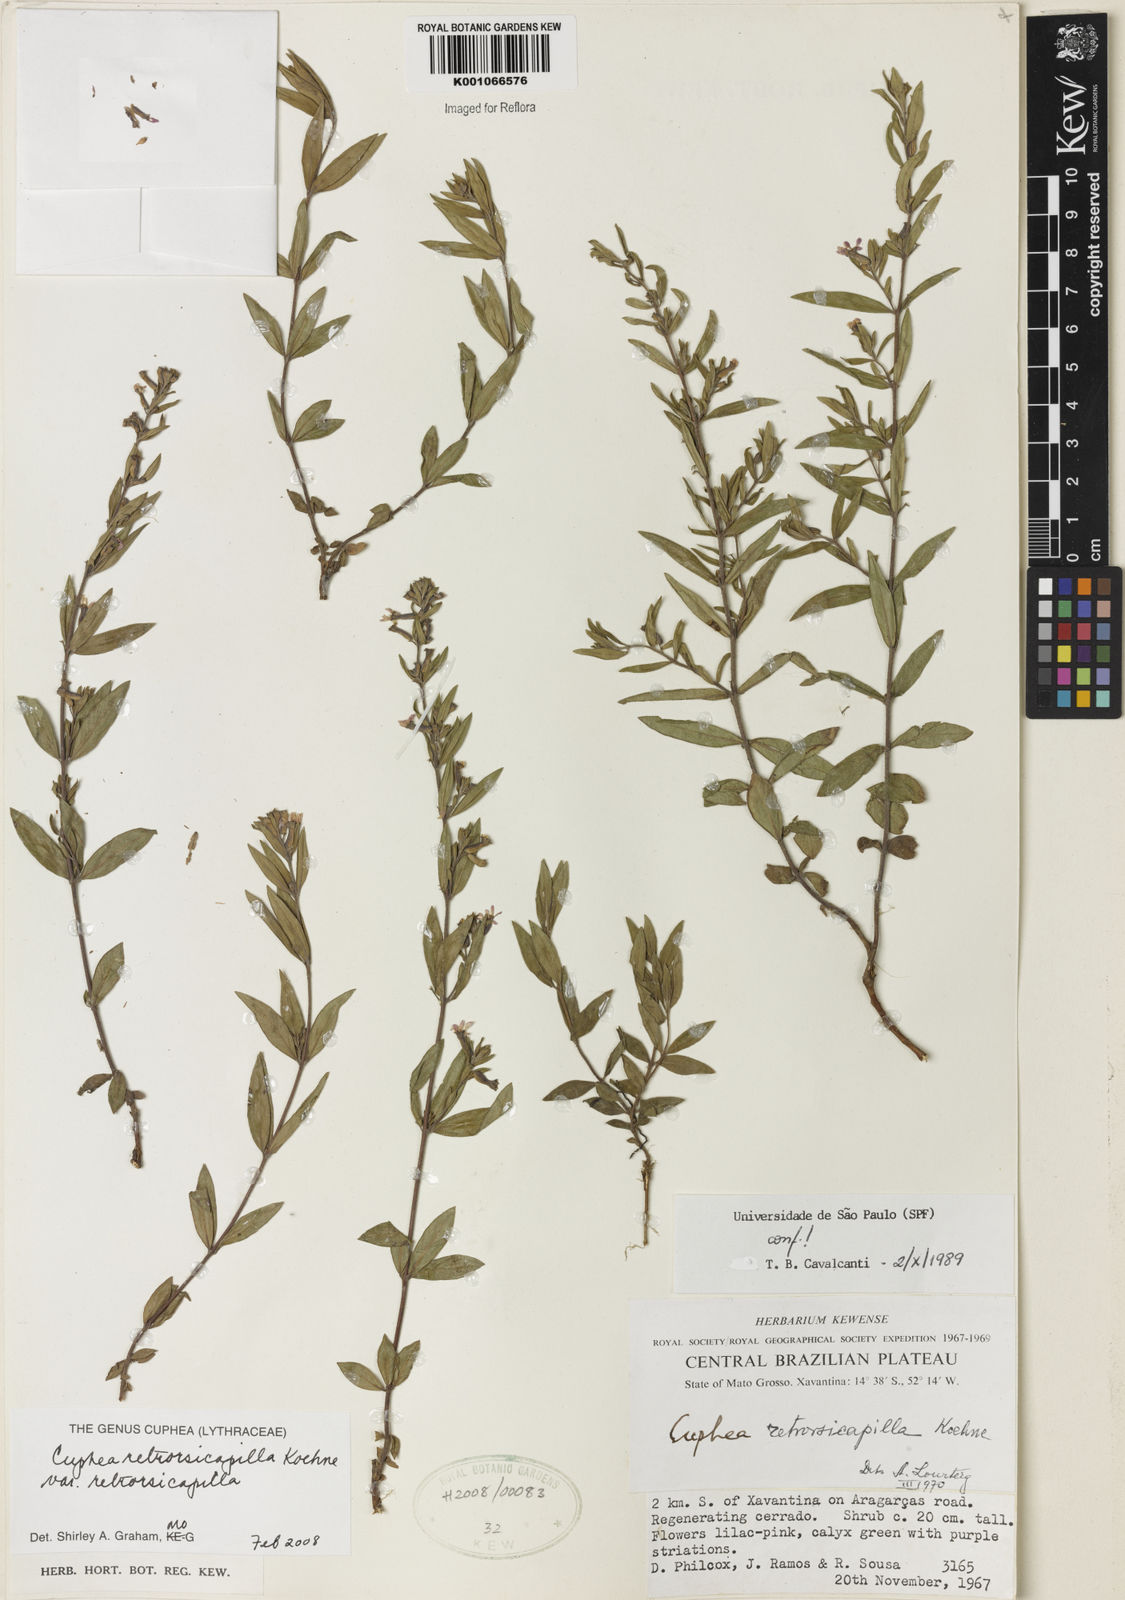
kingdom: Plantae
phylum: Tracheophyta
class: Magnoliopsida
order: Myrtales
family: Lythraceae
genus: Cuphea
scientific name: Cuphea retrorsicapilla
